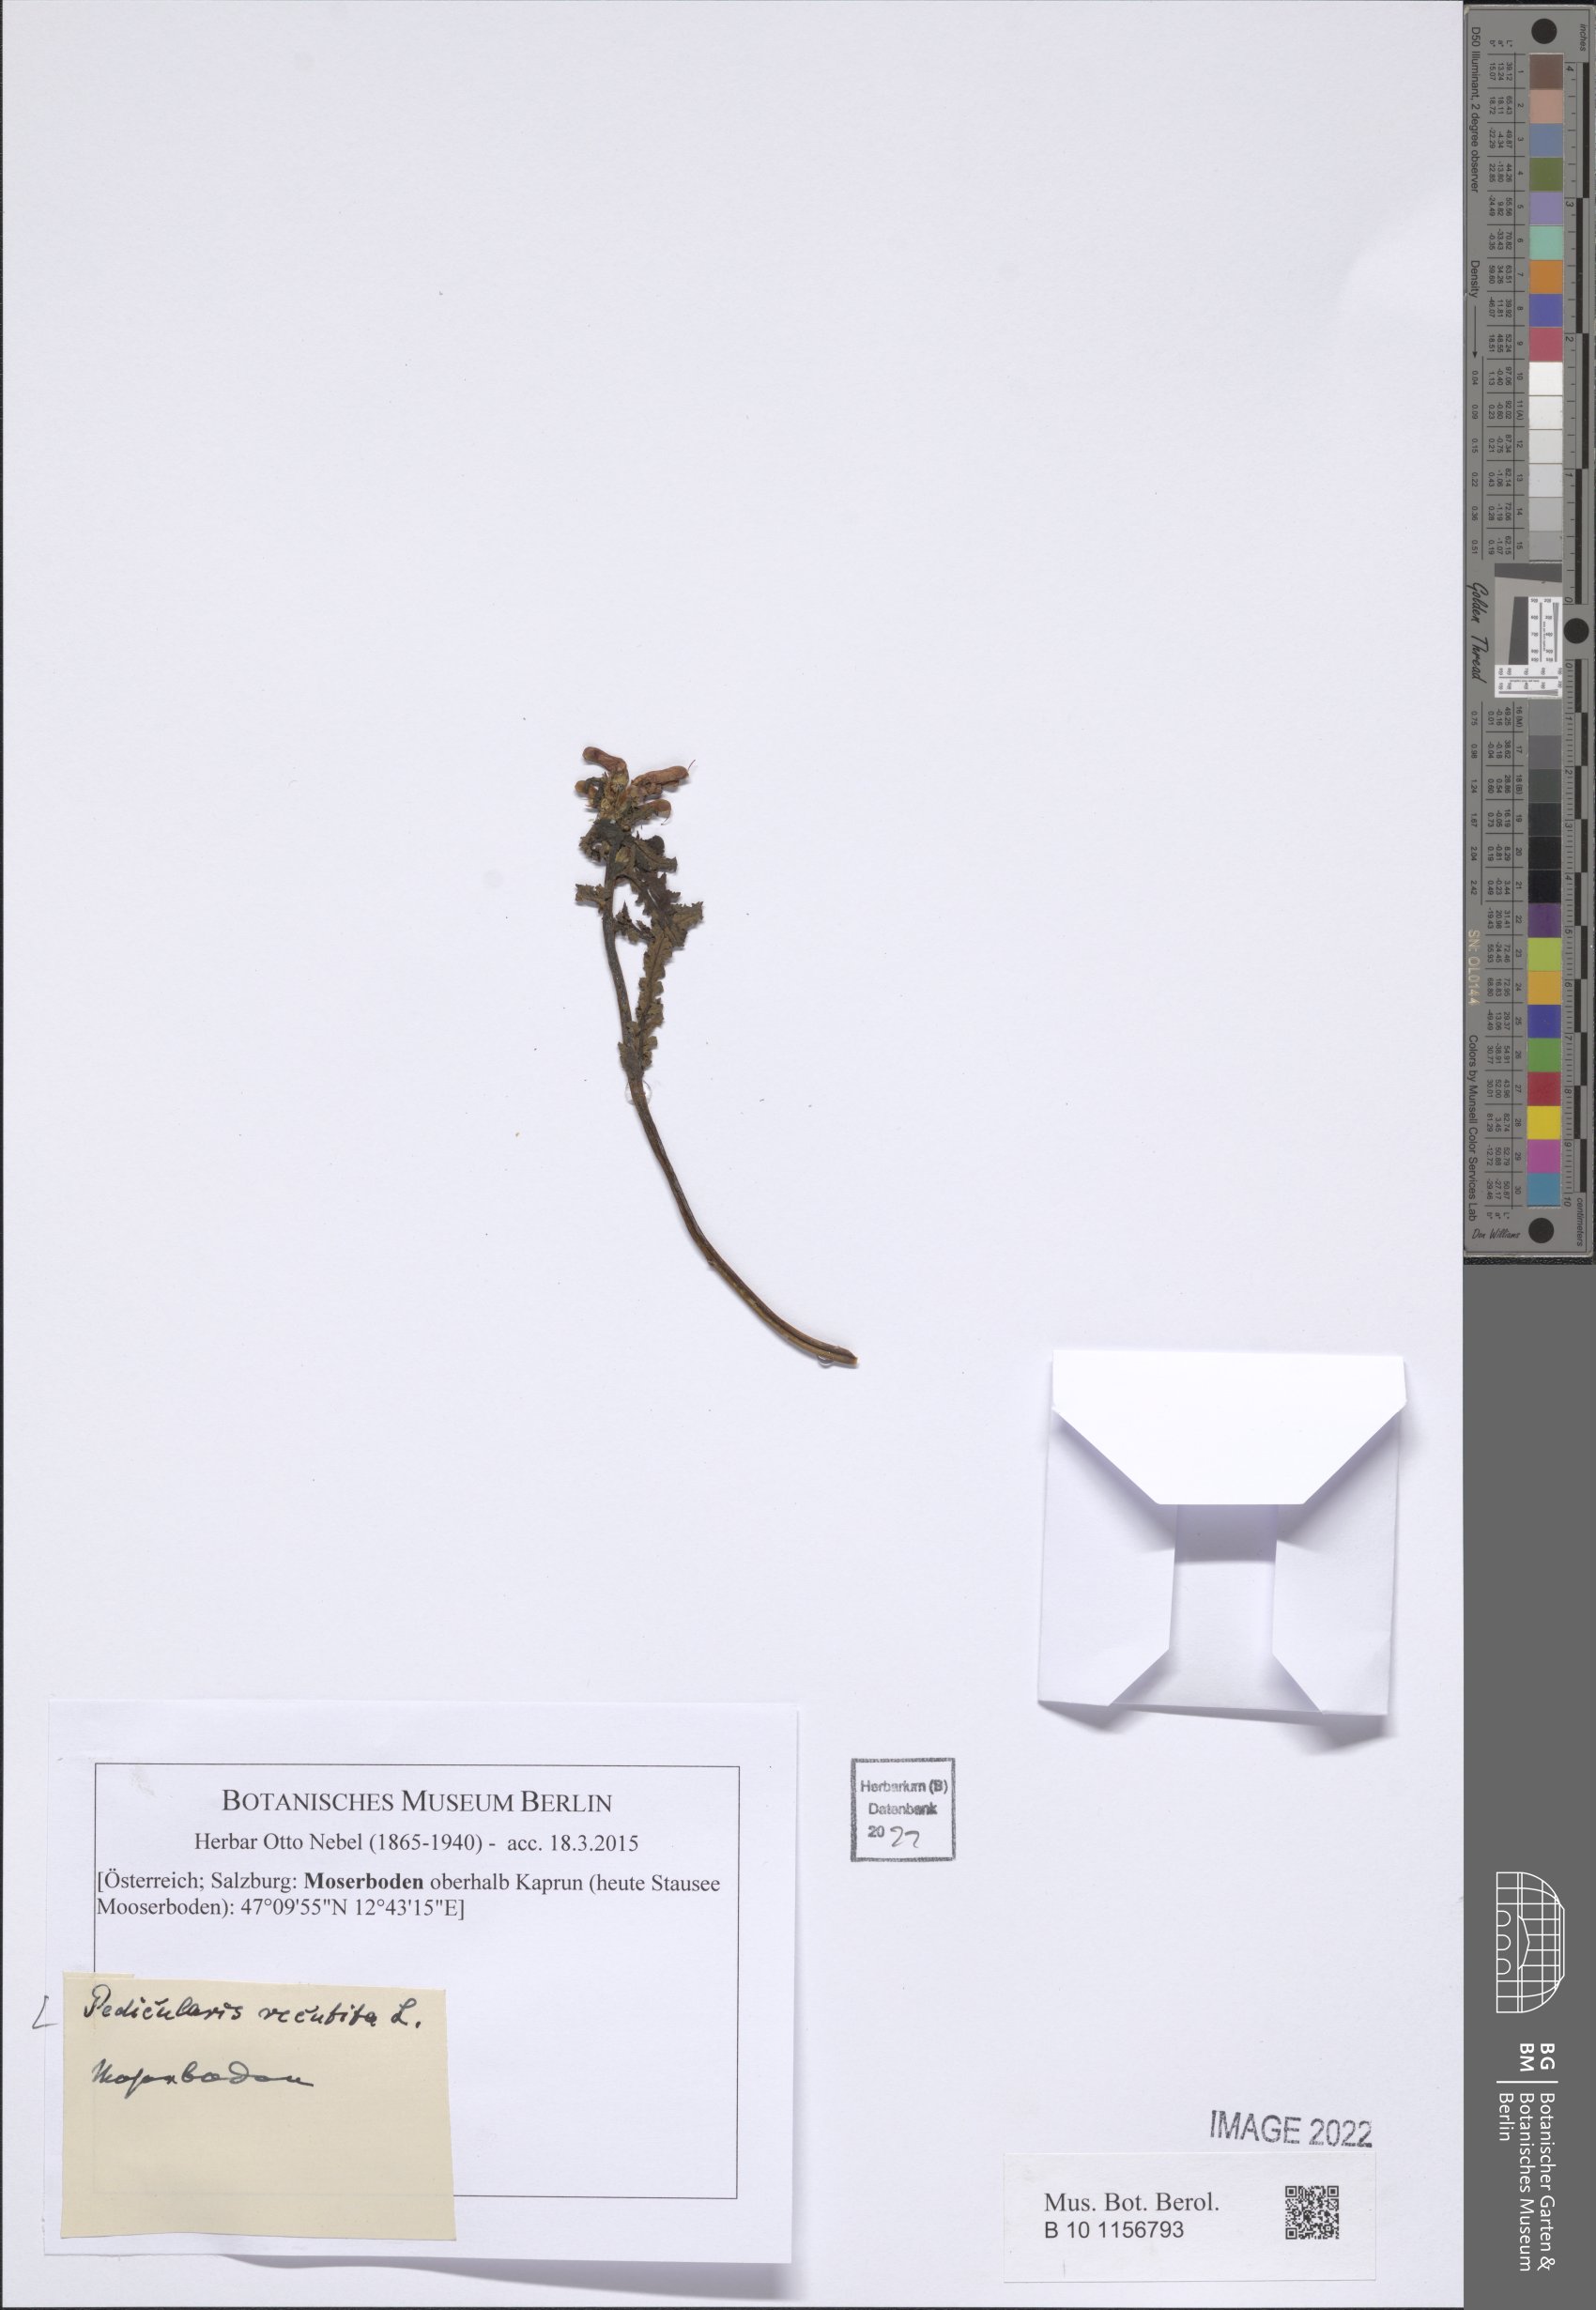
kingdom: Plantae
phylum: Tracheophyta
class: Magnoliopsida
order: Lamiales
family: Orobanchaceae
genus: Pedicularis
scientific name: Pedicularis recutita
